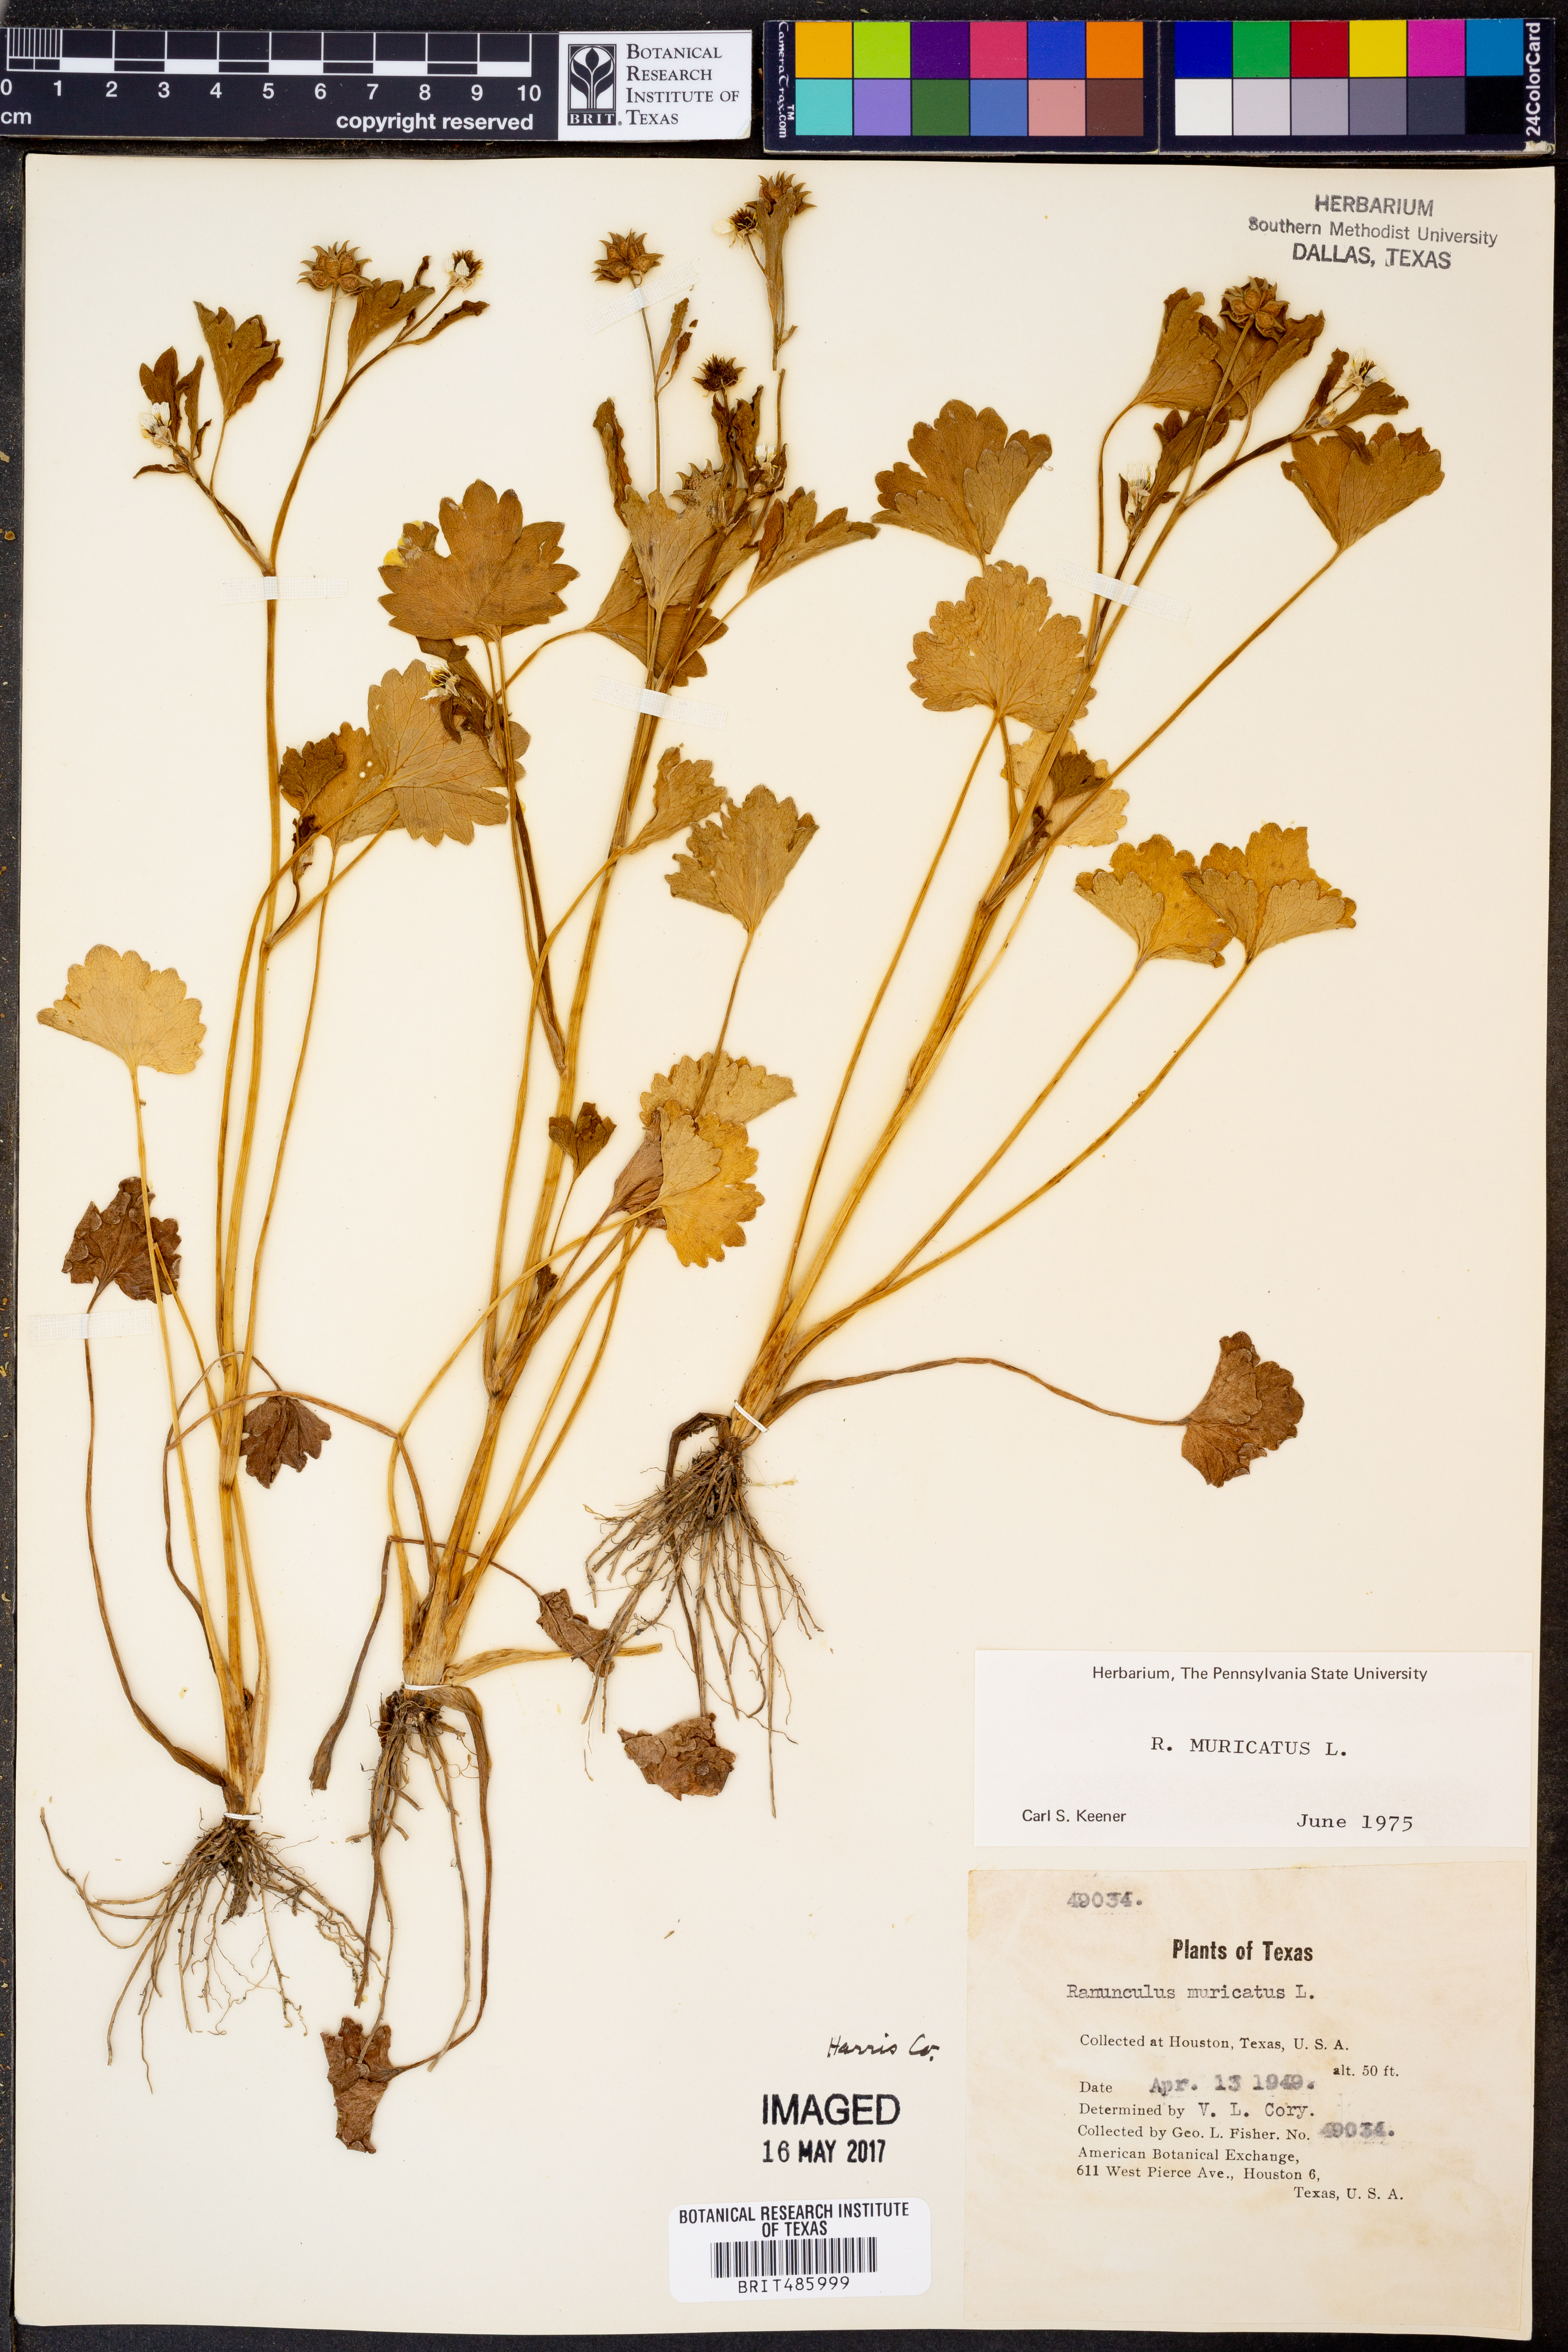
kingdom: Plantae
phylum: Tracheophyta
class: Magnoliopsida
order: Ranunculales
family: Ranunculaceae
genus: Ranunculus
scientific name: Ranunculus muricatus
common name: Rough-fruited buttercup
